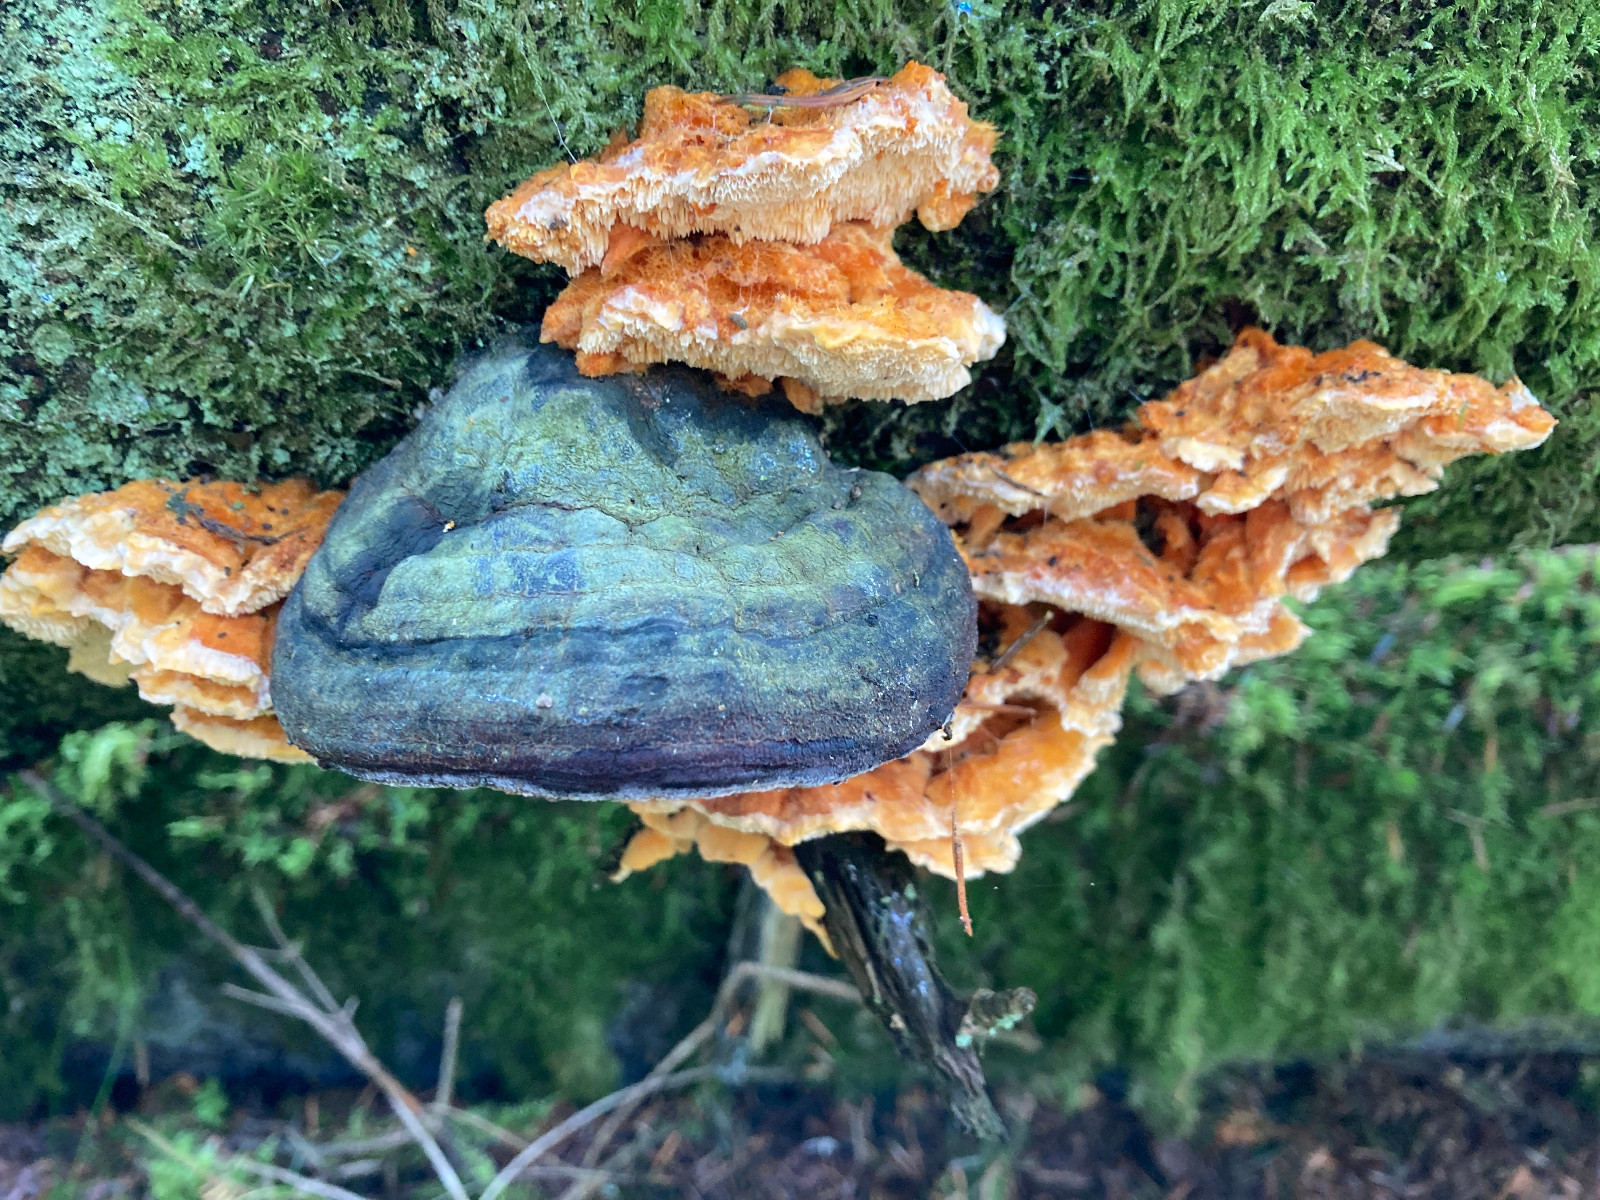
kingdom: Fungi
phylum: Basidiomycota
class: Agaricomycetes
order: Polyporales
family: Pycnoporellaceae
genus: Pycnoporellus
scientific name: Pycnoporellus fulgens
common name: flammeporesvamp
